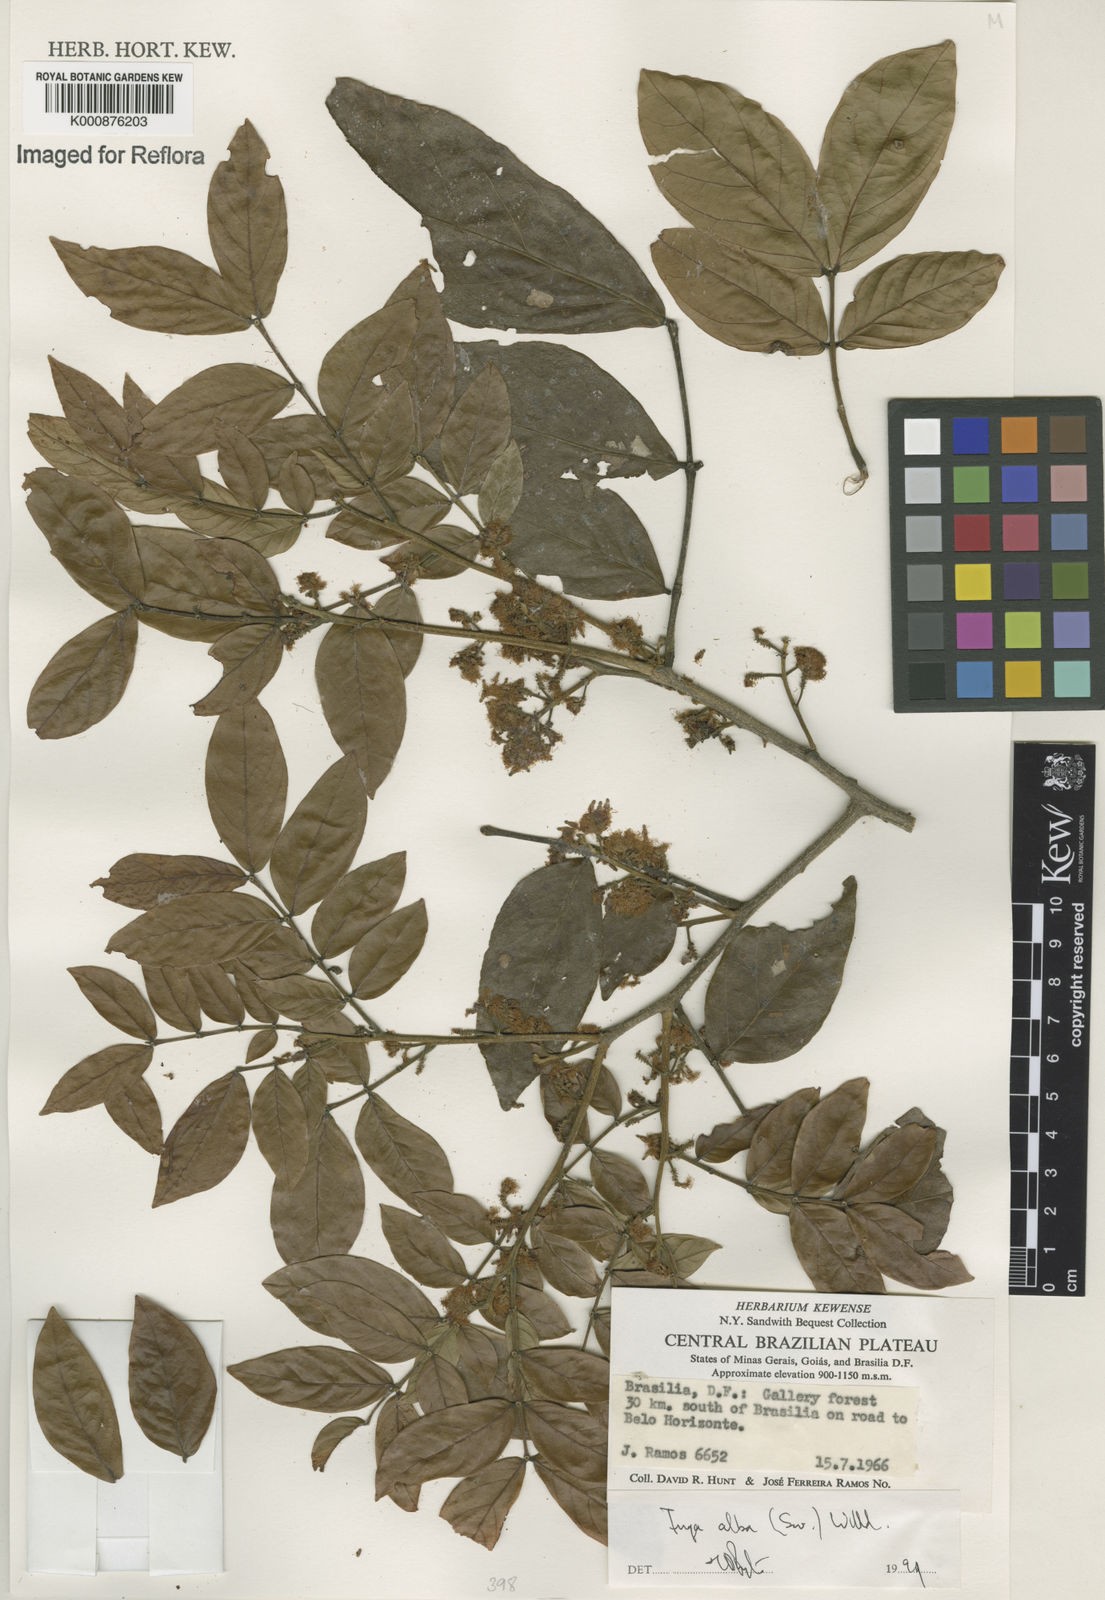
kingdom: Plantae
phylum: Tracheophyta
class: Magnoliopsida
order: Fabales
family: Fabaceae
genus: Inga
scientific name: Inga alba
